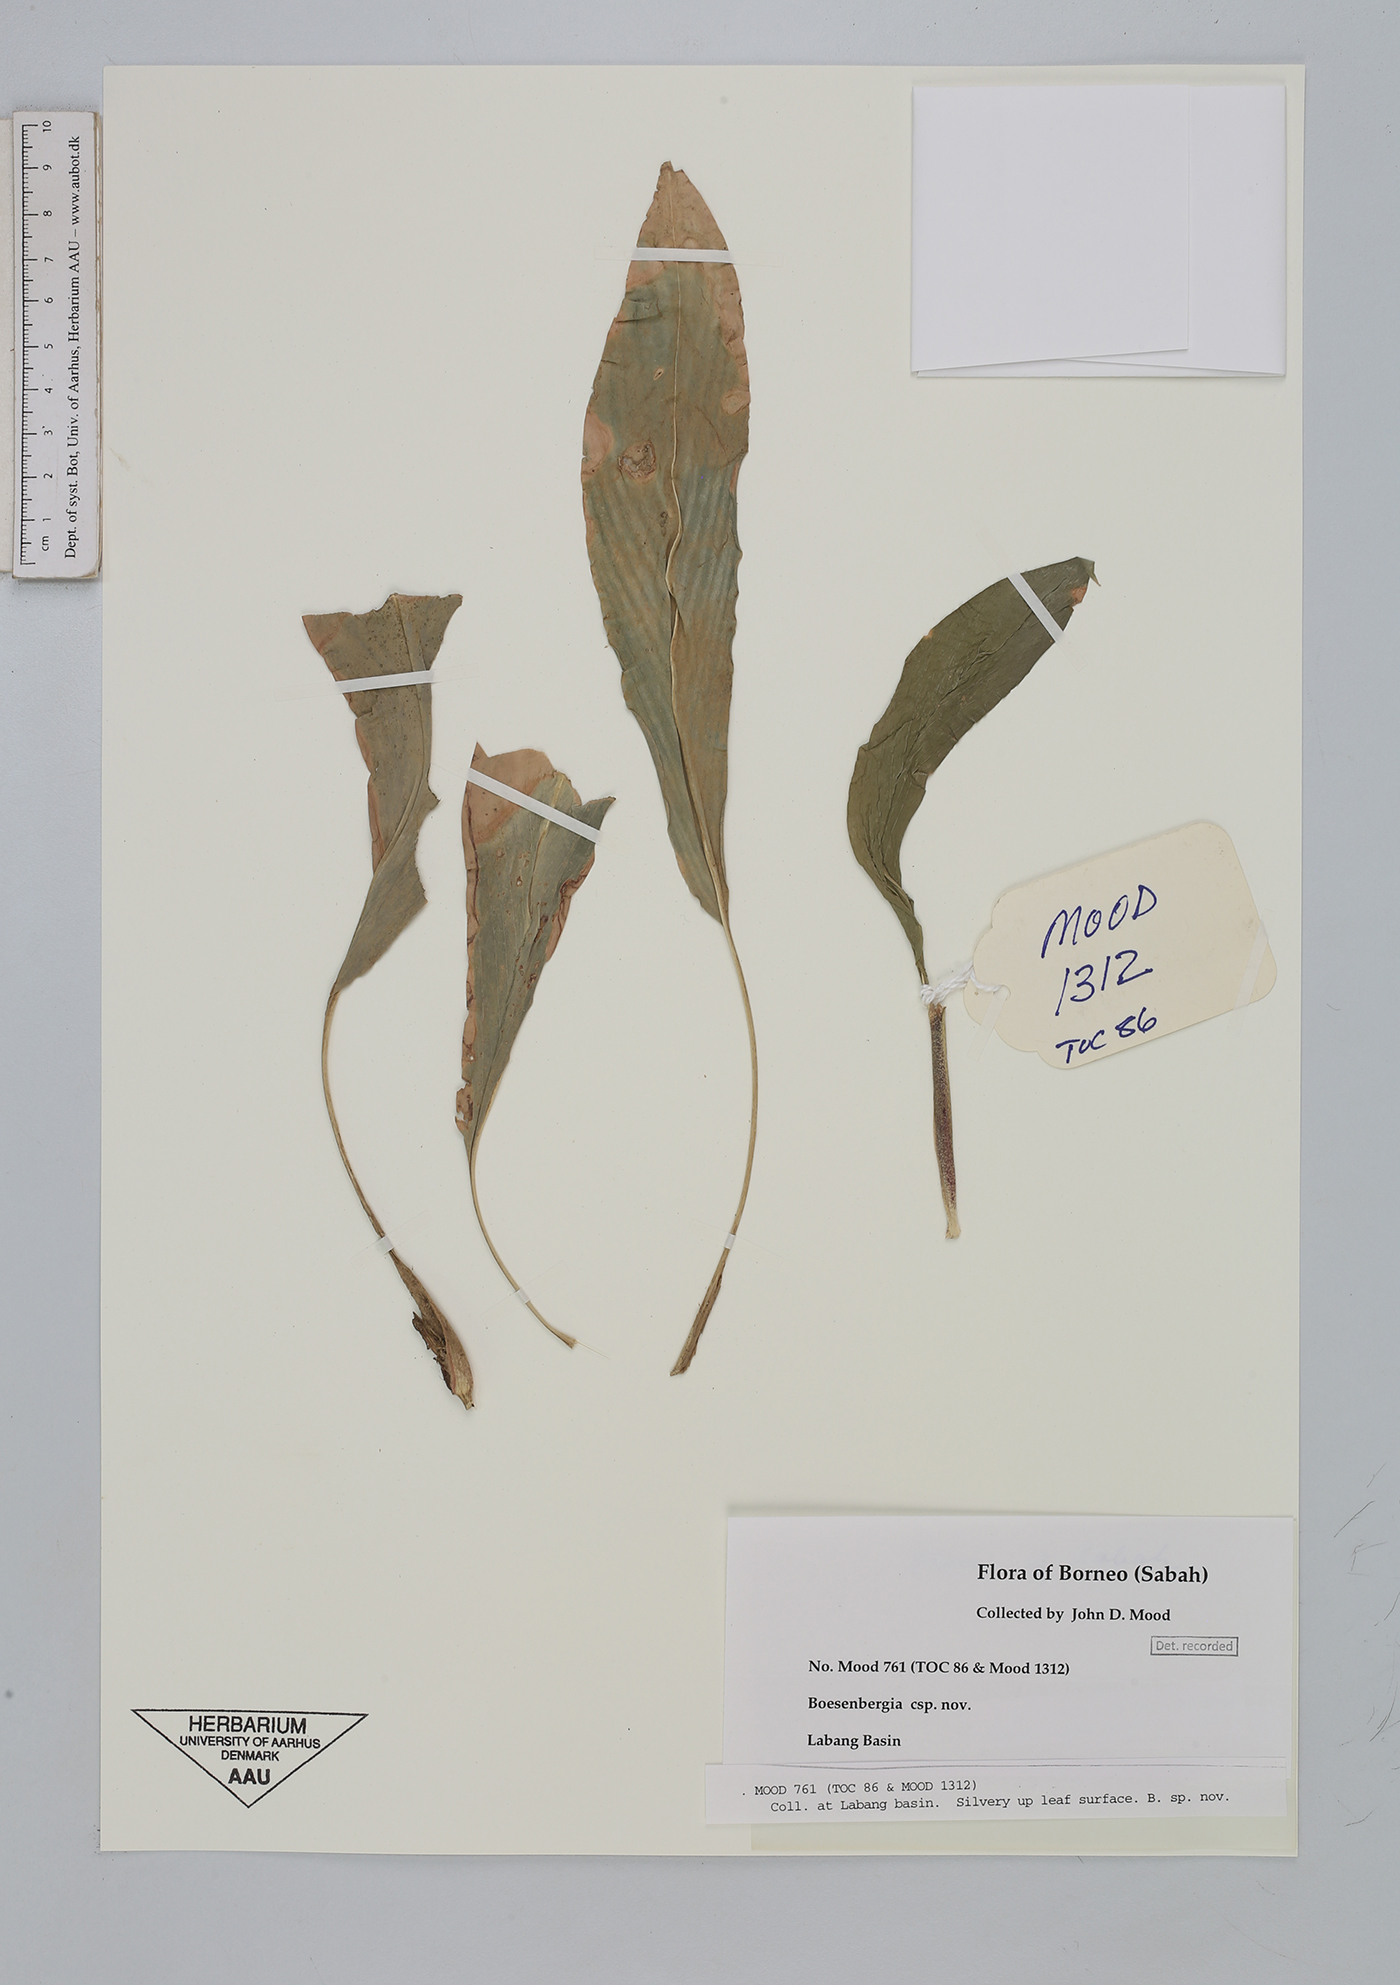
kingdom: Plantae
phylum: Tracheophyta
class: Liliopsida
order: Zingiberales
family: Zingiberaceae
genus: Boesenbergia
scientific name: Boesenbergia
